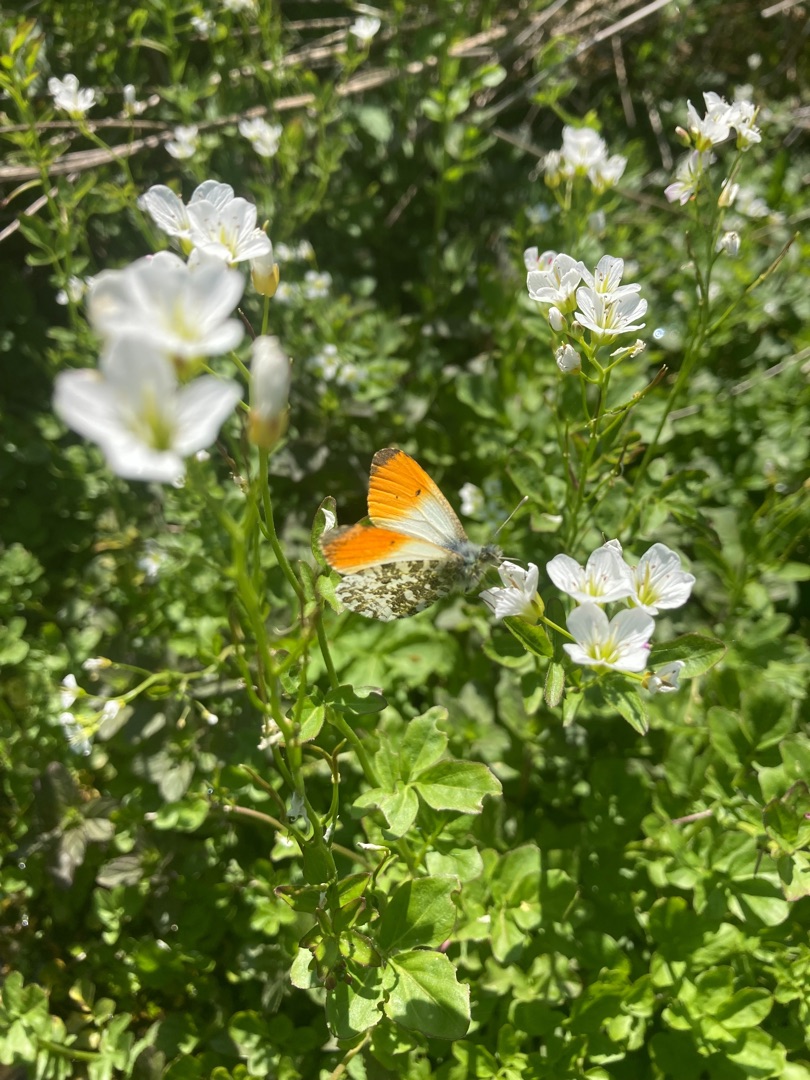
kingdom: Animalia
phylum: Arthropoda
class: Insecta
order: Lepidoptera
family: Pieridae
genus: Anthocharis
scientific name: Anthocharis cardamines
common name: Aurora
